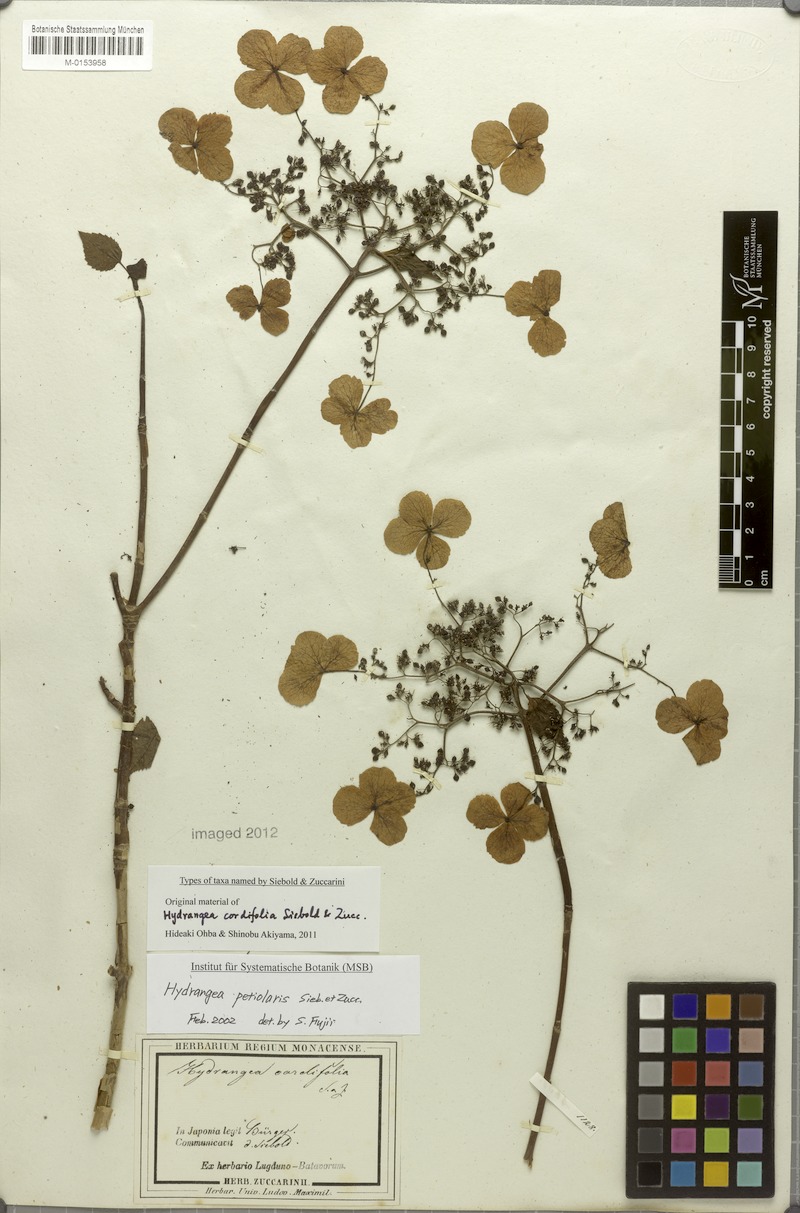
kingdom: Plantae
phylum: Tracheophyta
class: Magnoliopsida
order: Cornales
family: Hydrangeaceae
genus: Hydrangea
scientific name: Hydrangea petiolaris
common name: Japanese climbing hydrangea
